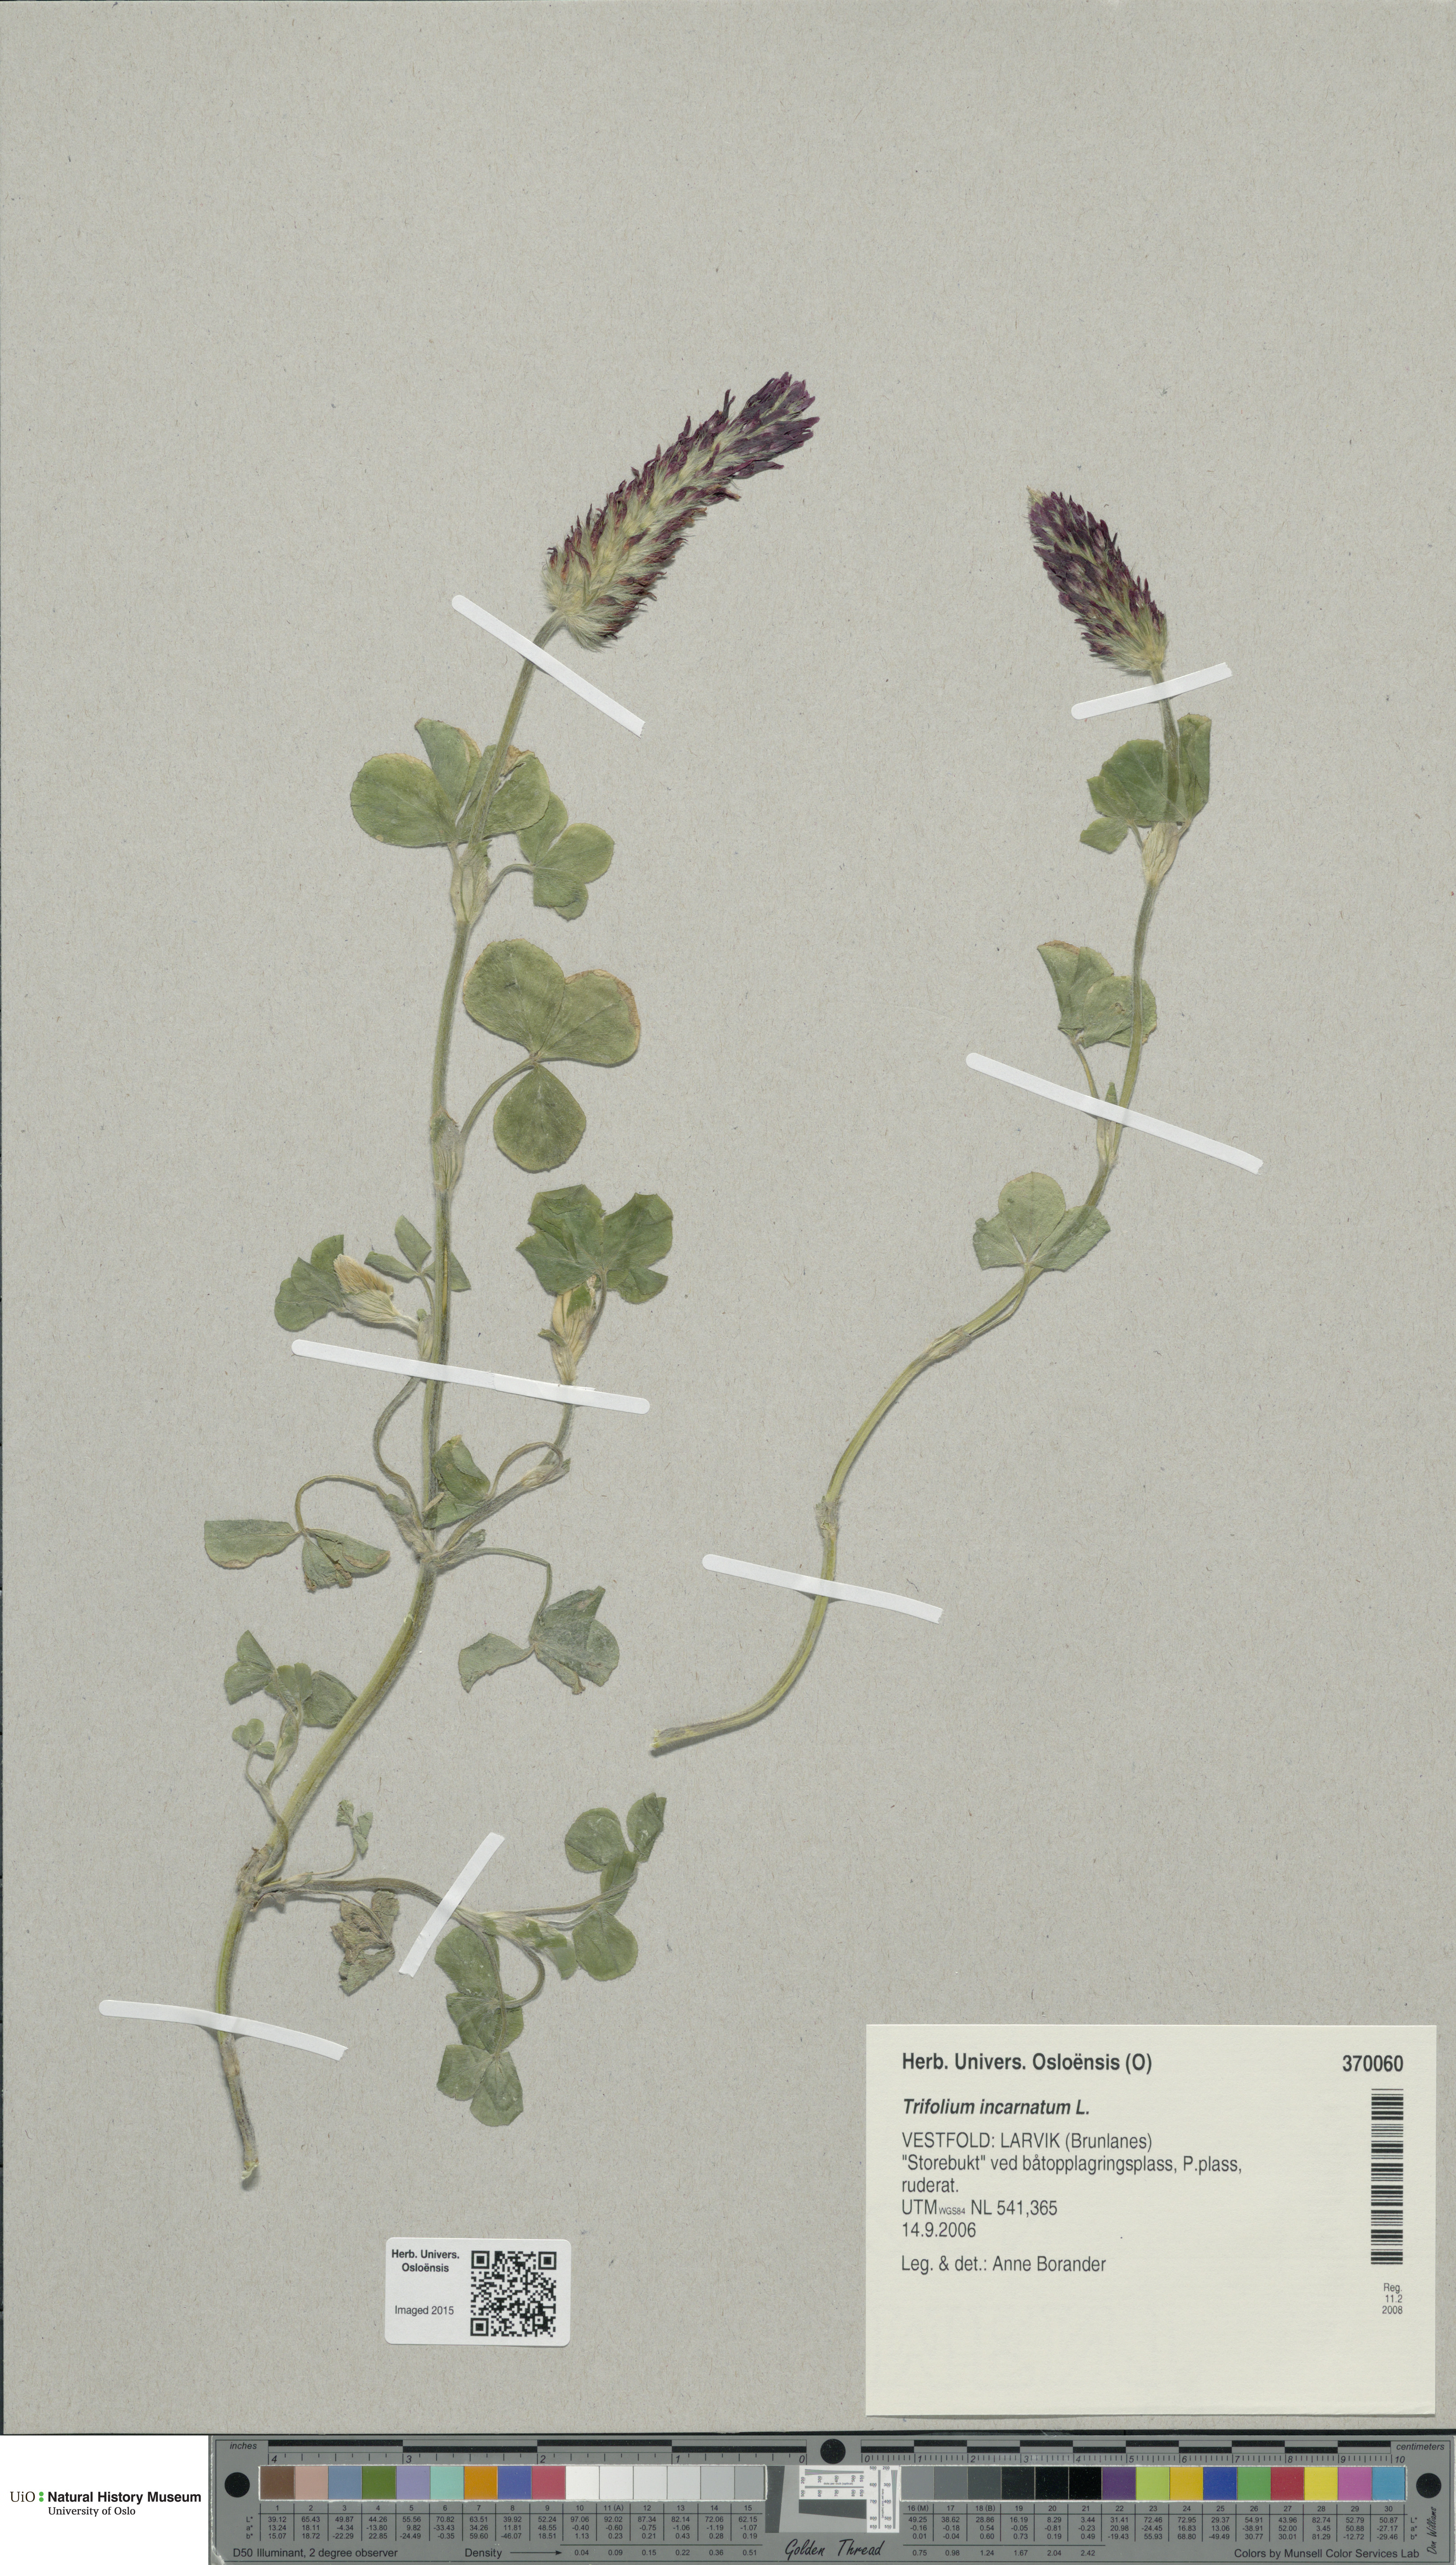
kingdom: Plantae
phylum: Tracheophyta
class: Magnoliopsida
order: Fabales
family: Fabaceae
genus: Trifolium
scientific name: Trifolium incarnatum
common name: Crimson clover
